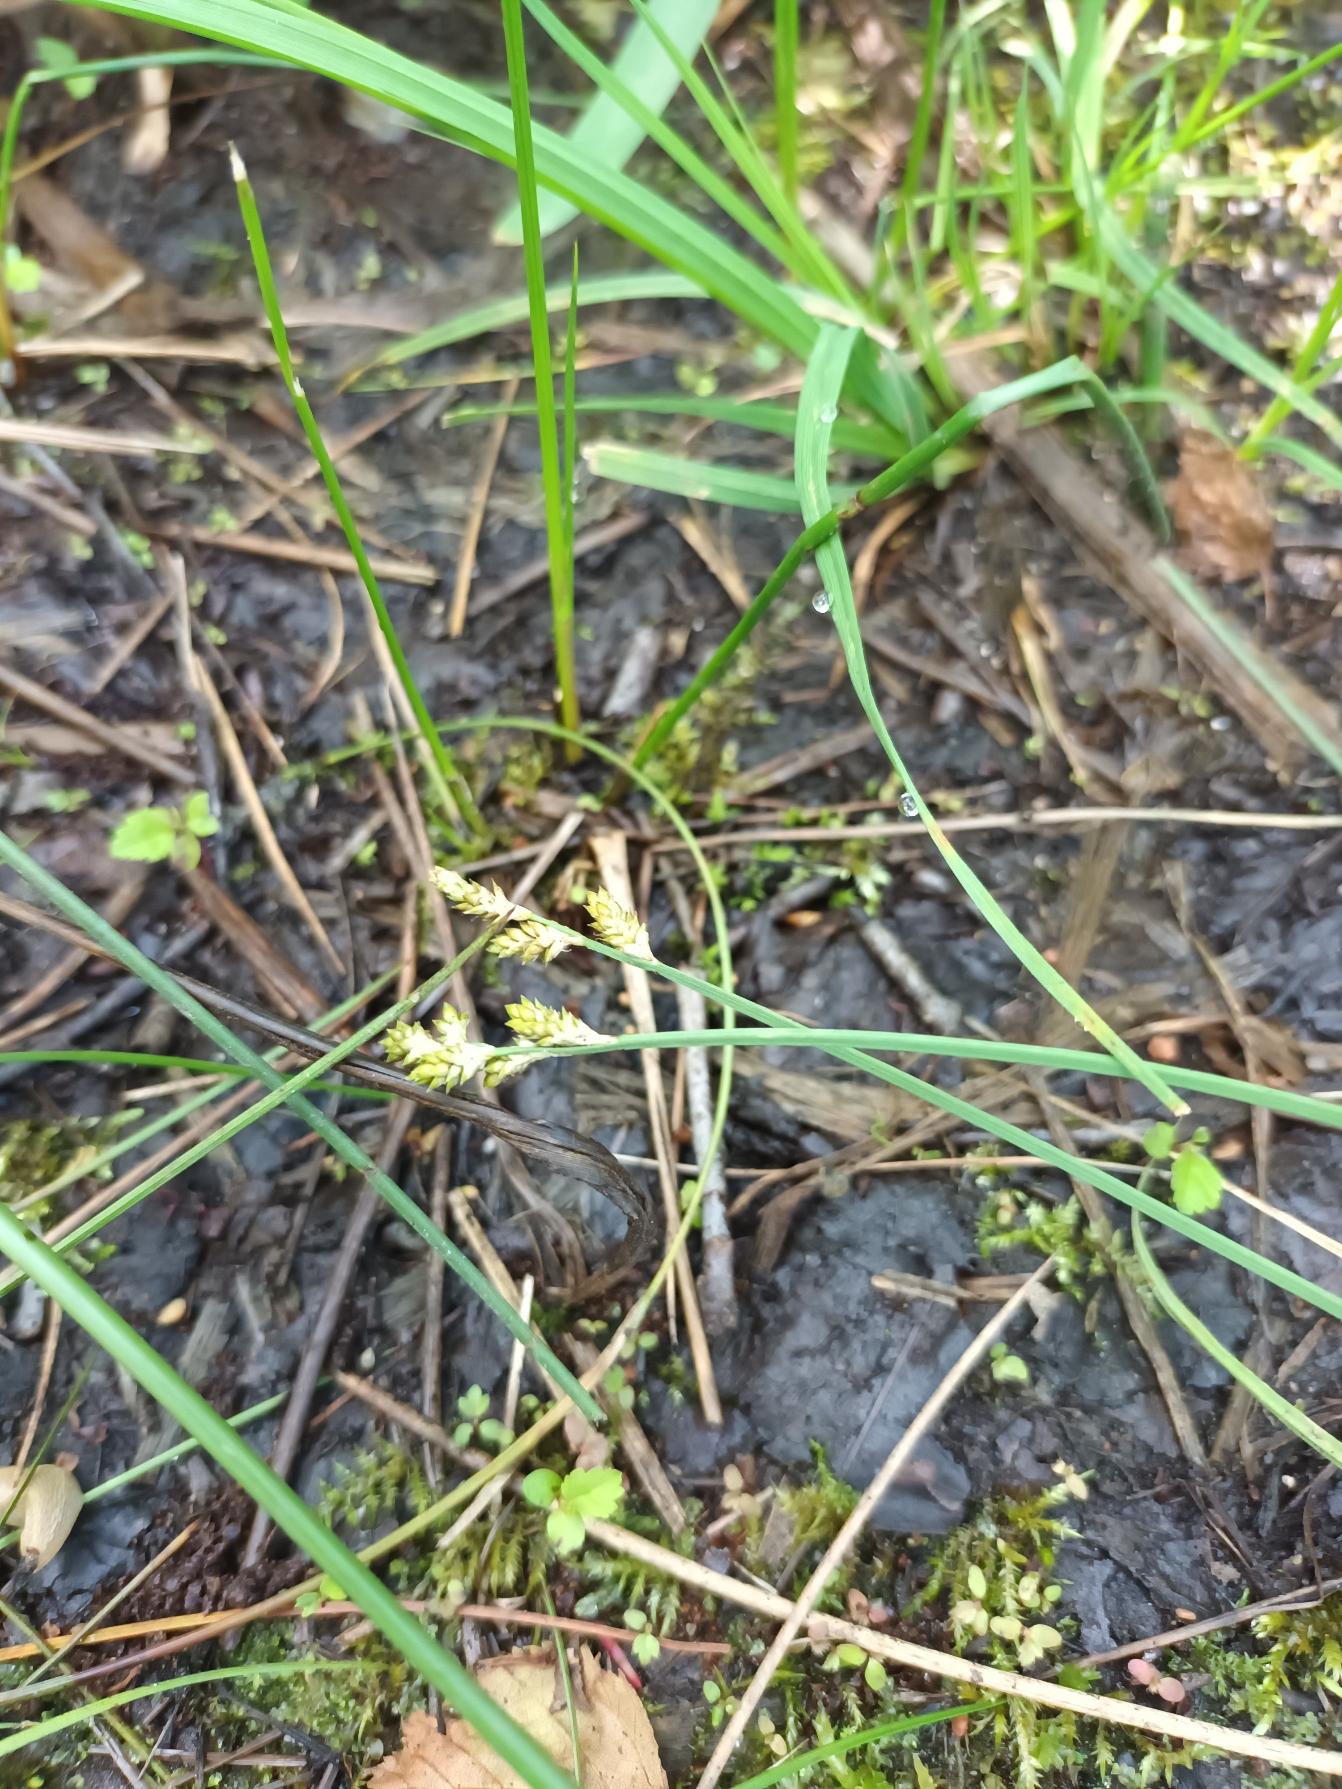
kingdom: Plantae
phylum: Tracheophyta
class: Liliopsida
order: Poales
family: Cyperaceae
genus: Carex
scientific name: Carex canescens
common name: Grå star
